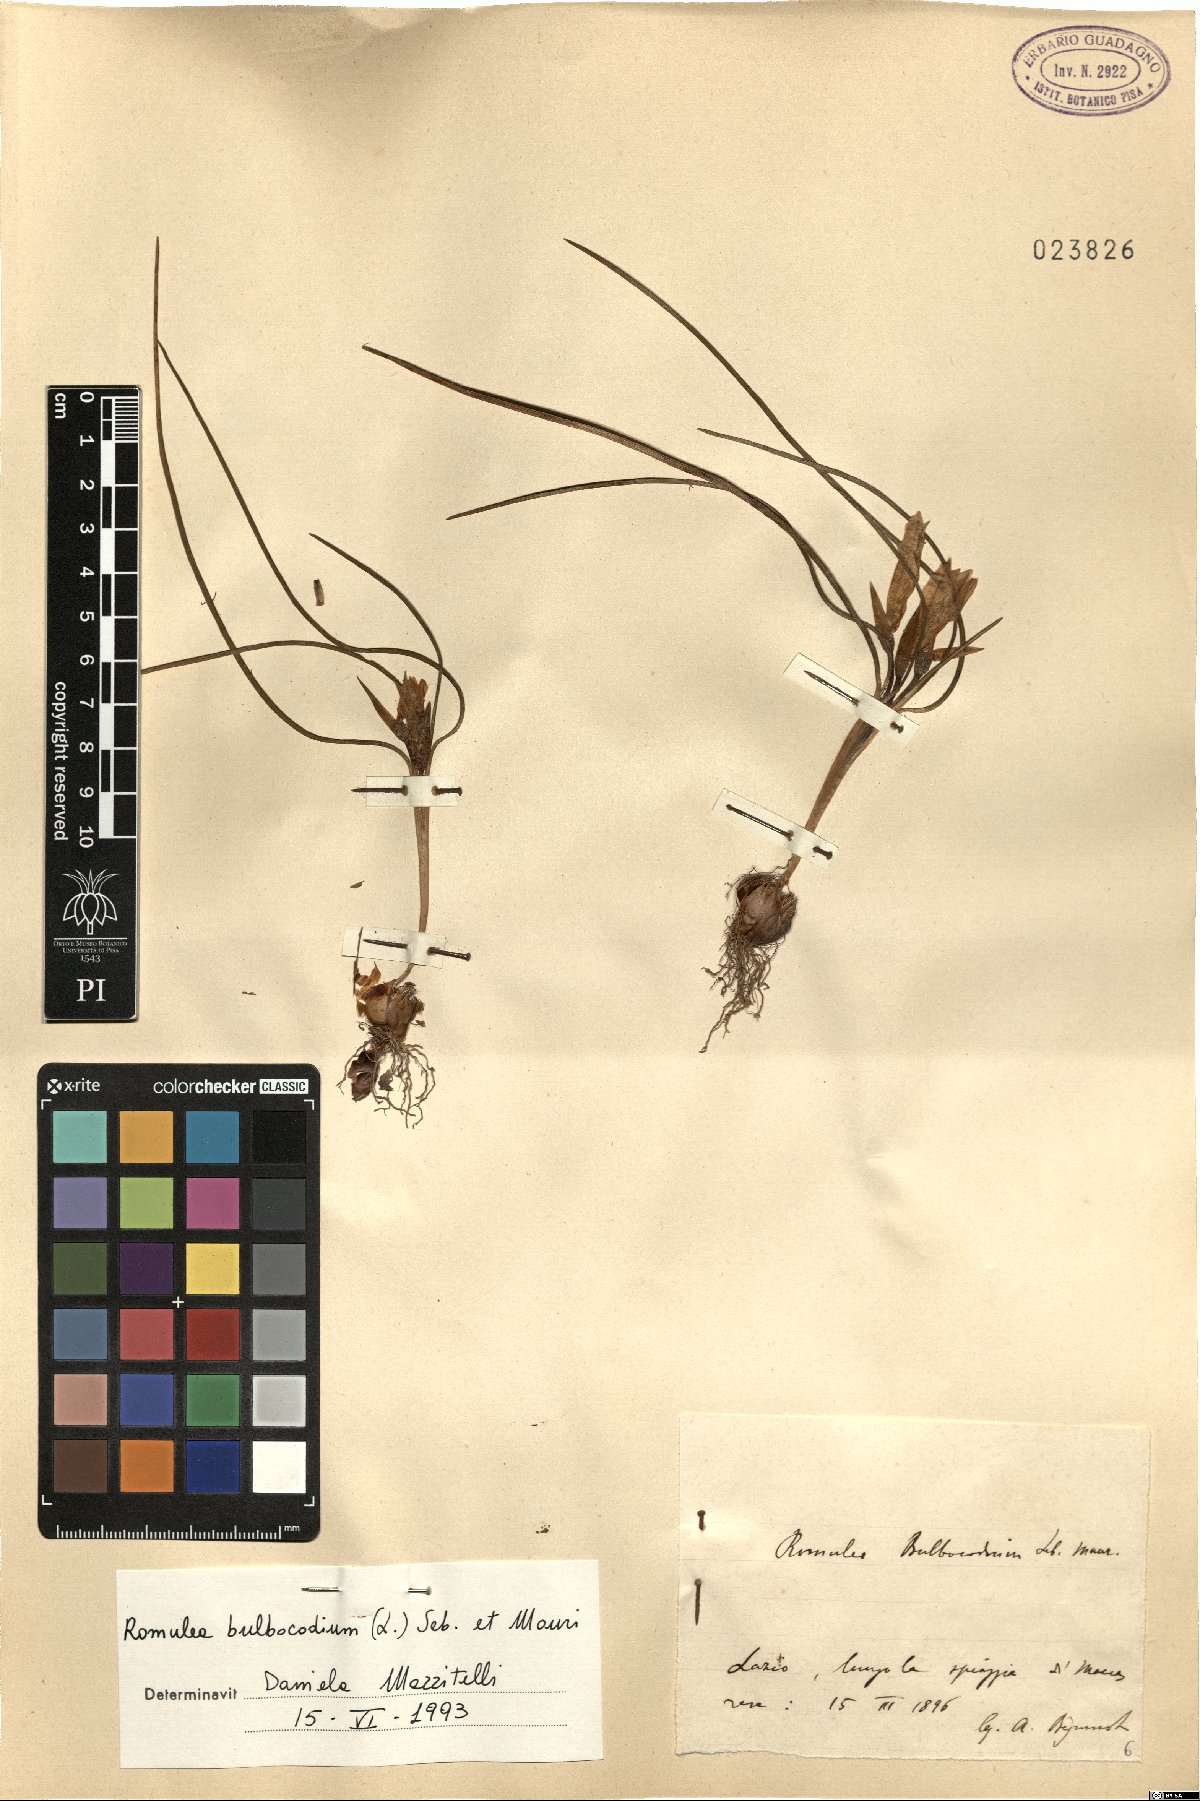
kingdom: Plantae
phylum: Tracheophyta
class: Liliopsida
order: Asparagales
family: Iridaceae
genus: Romulea
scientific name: Romulea bulbocodium
